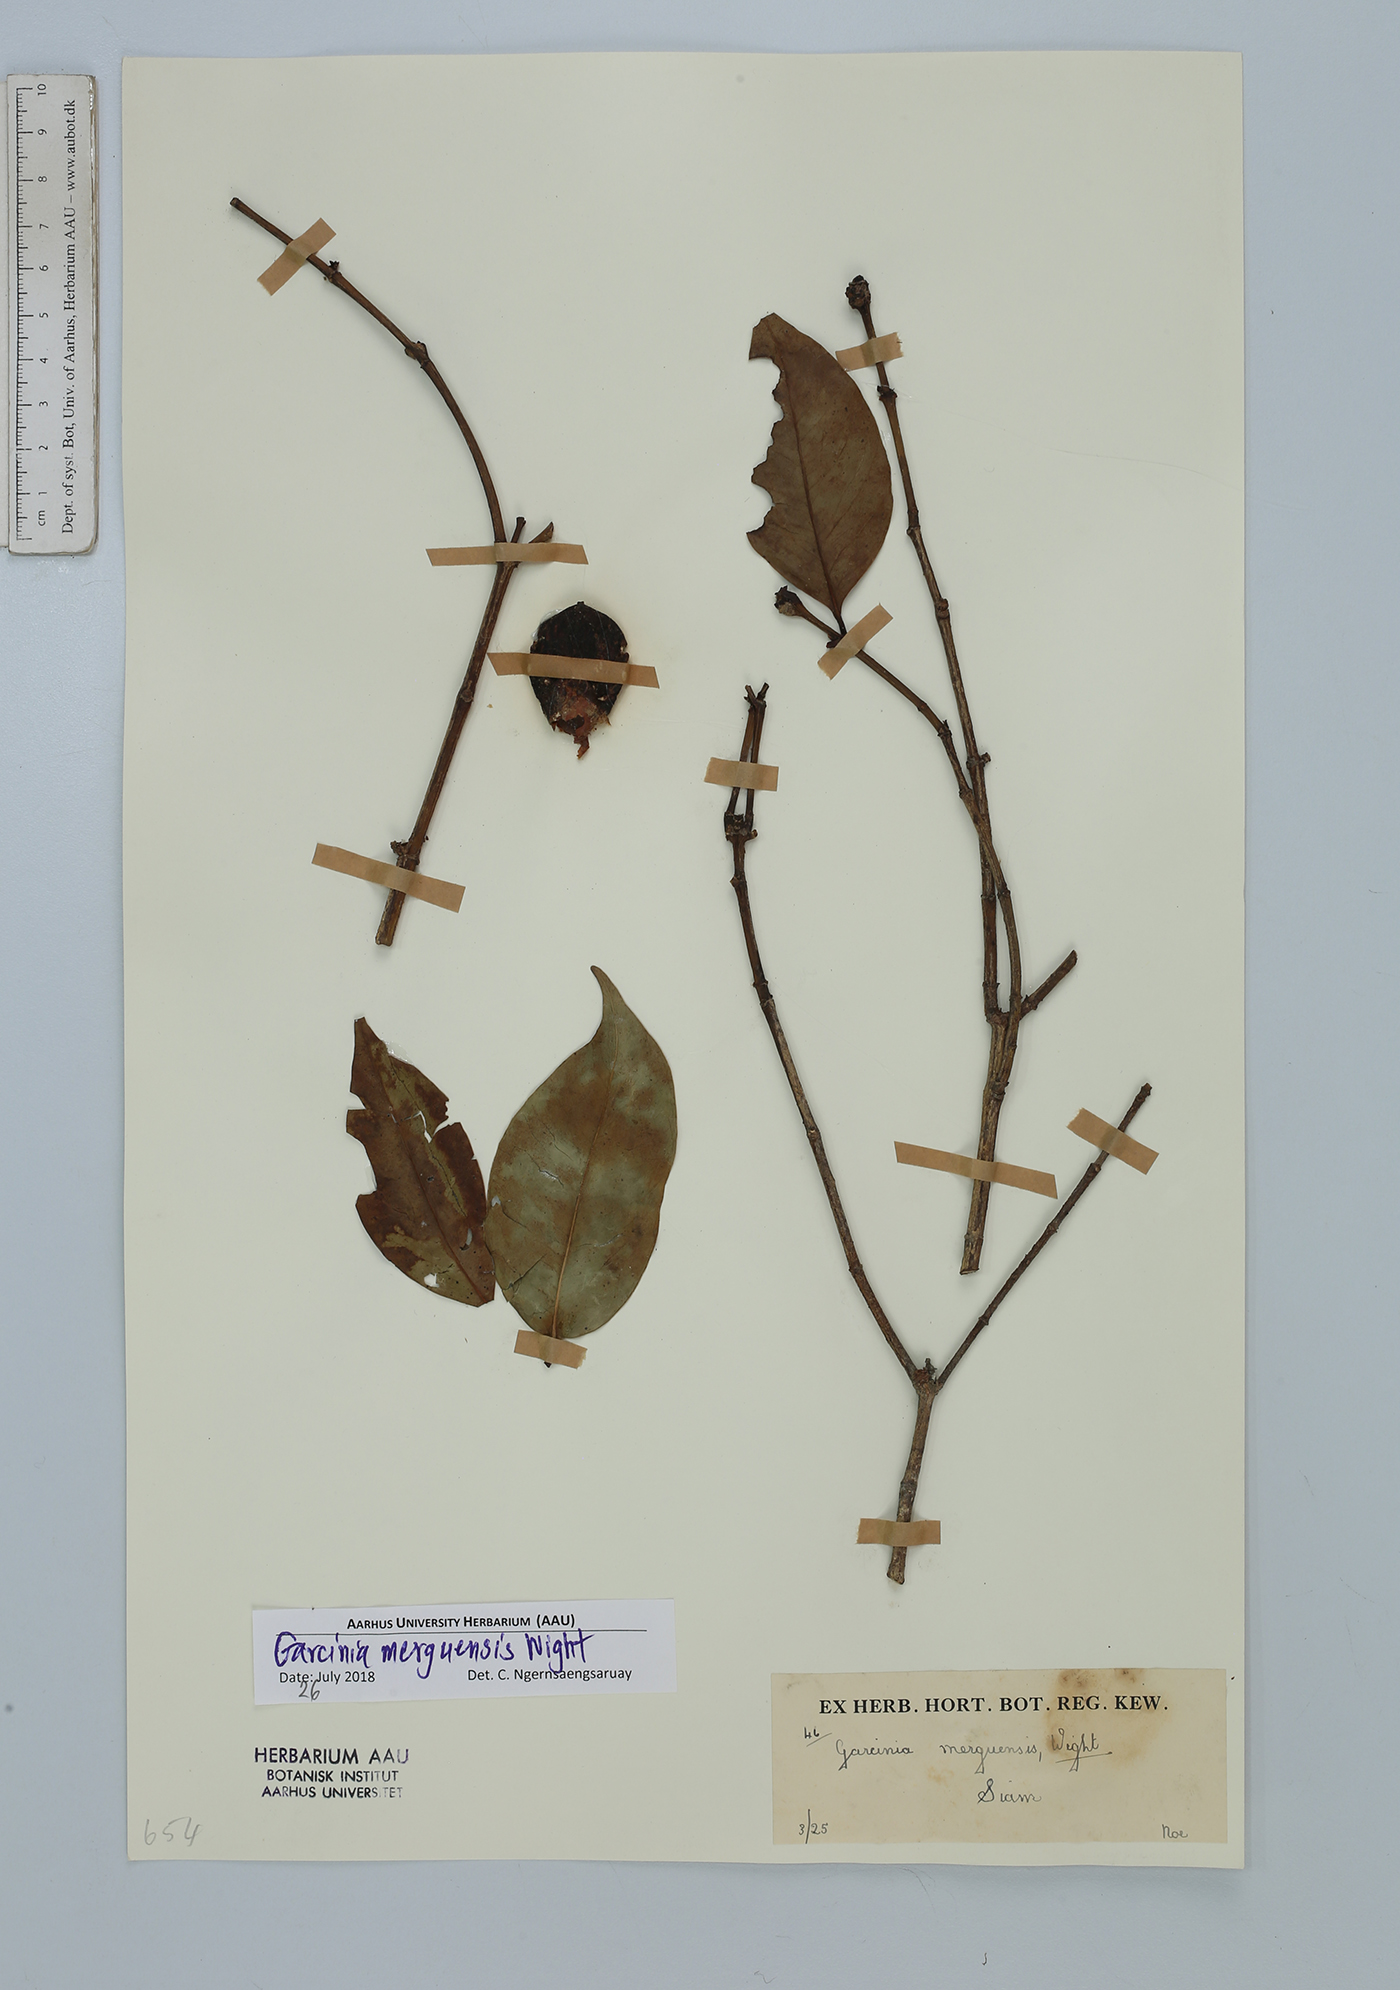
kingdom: Plantae
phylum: Tracheophyta
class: Magnoliopsida
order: Malpighiales
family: Clusiaceae
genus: Garcinia
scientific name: Garcinia merguensis
